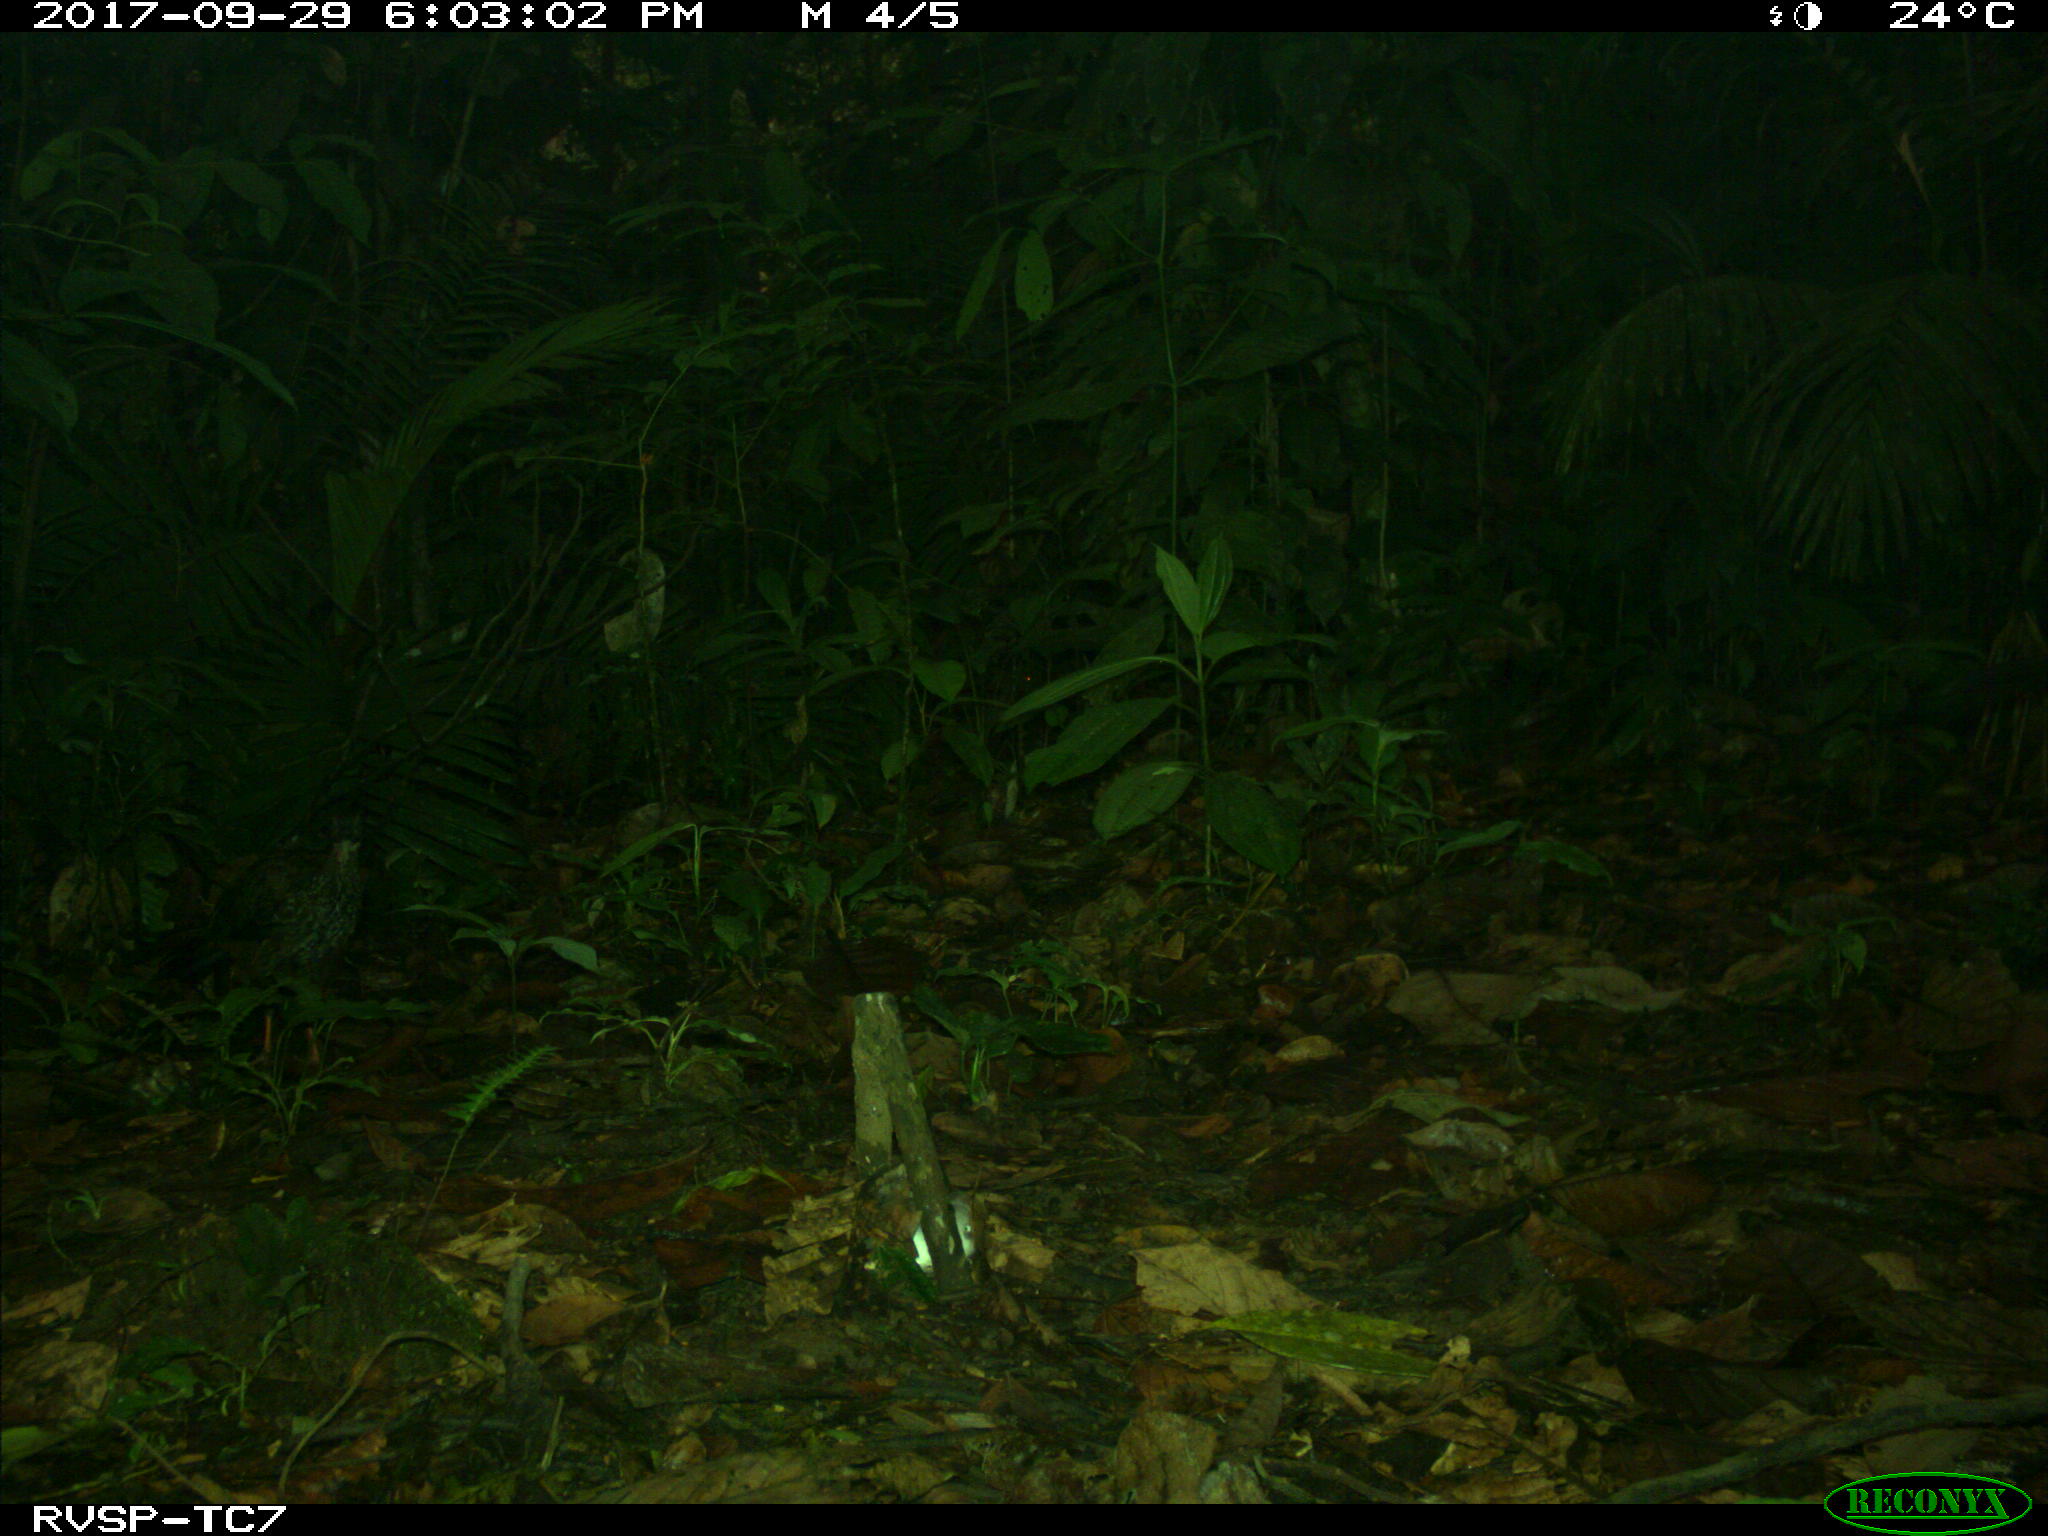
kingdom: Animalia
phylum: Chordata
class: Aves
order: Galliformes
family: Cracidae
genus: Penelope
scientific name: Penelope purpurascens
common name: Crested guan
